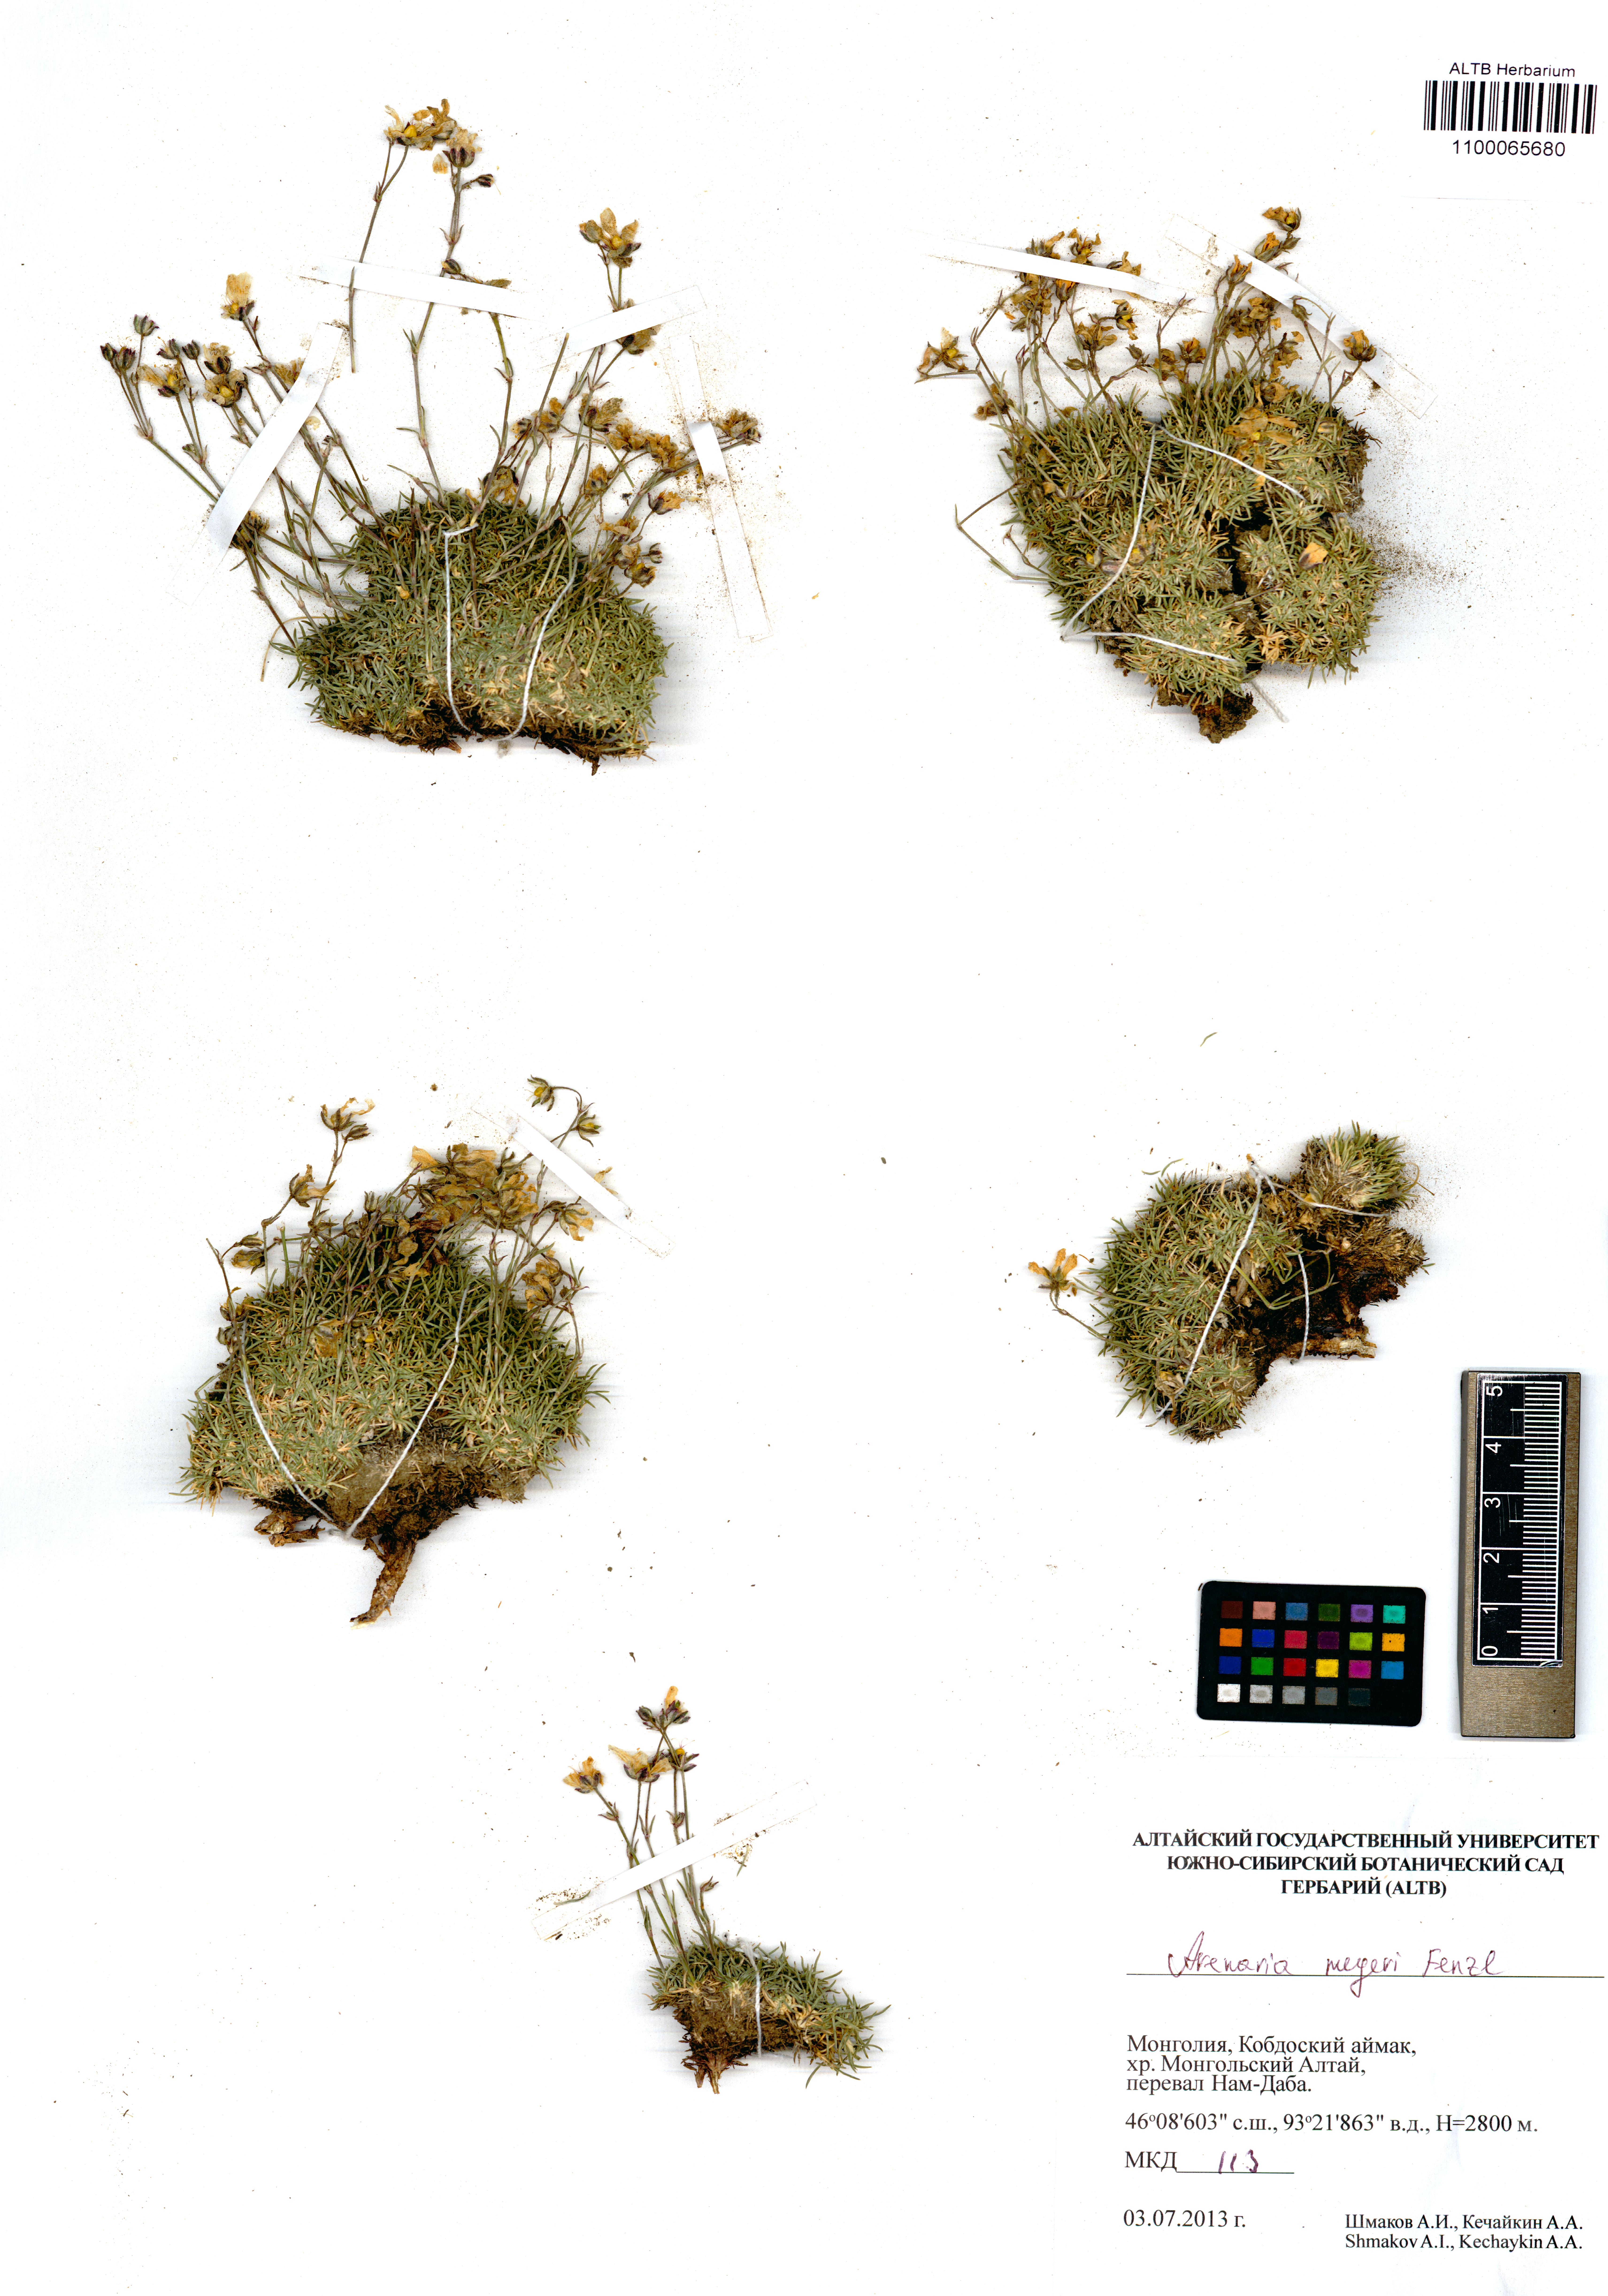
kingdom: Plantae
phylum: Tracheophyta
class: Magnoliopsida
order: Caryophyllales
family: Caryophyllaceae
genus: Eremogone
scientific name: Eremogone meyeri
